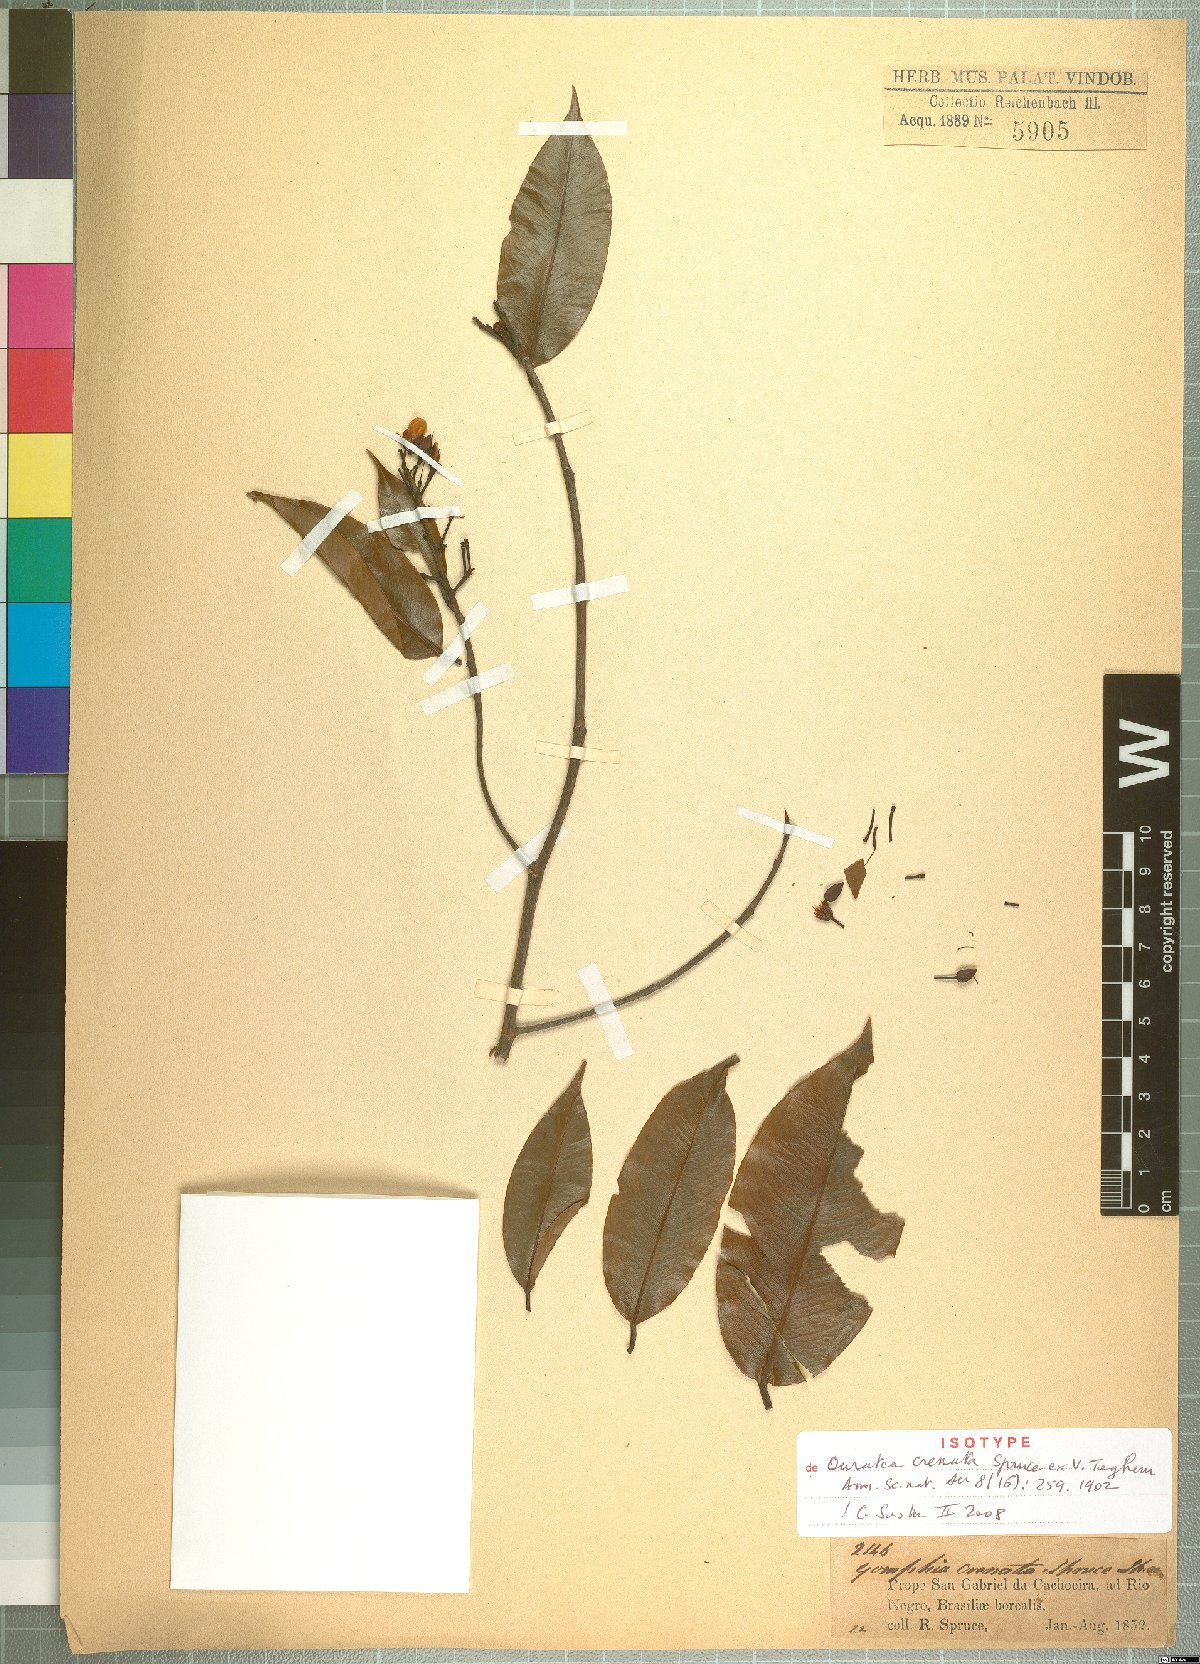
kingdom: Plantae
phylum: Tracheophyta
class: Magnoliopsida
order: Malpighiales
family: Ochnaceae
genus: Ouratea
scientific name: Ouratea pisiformis
